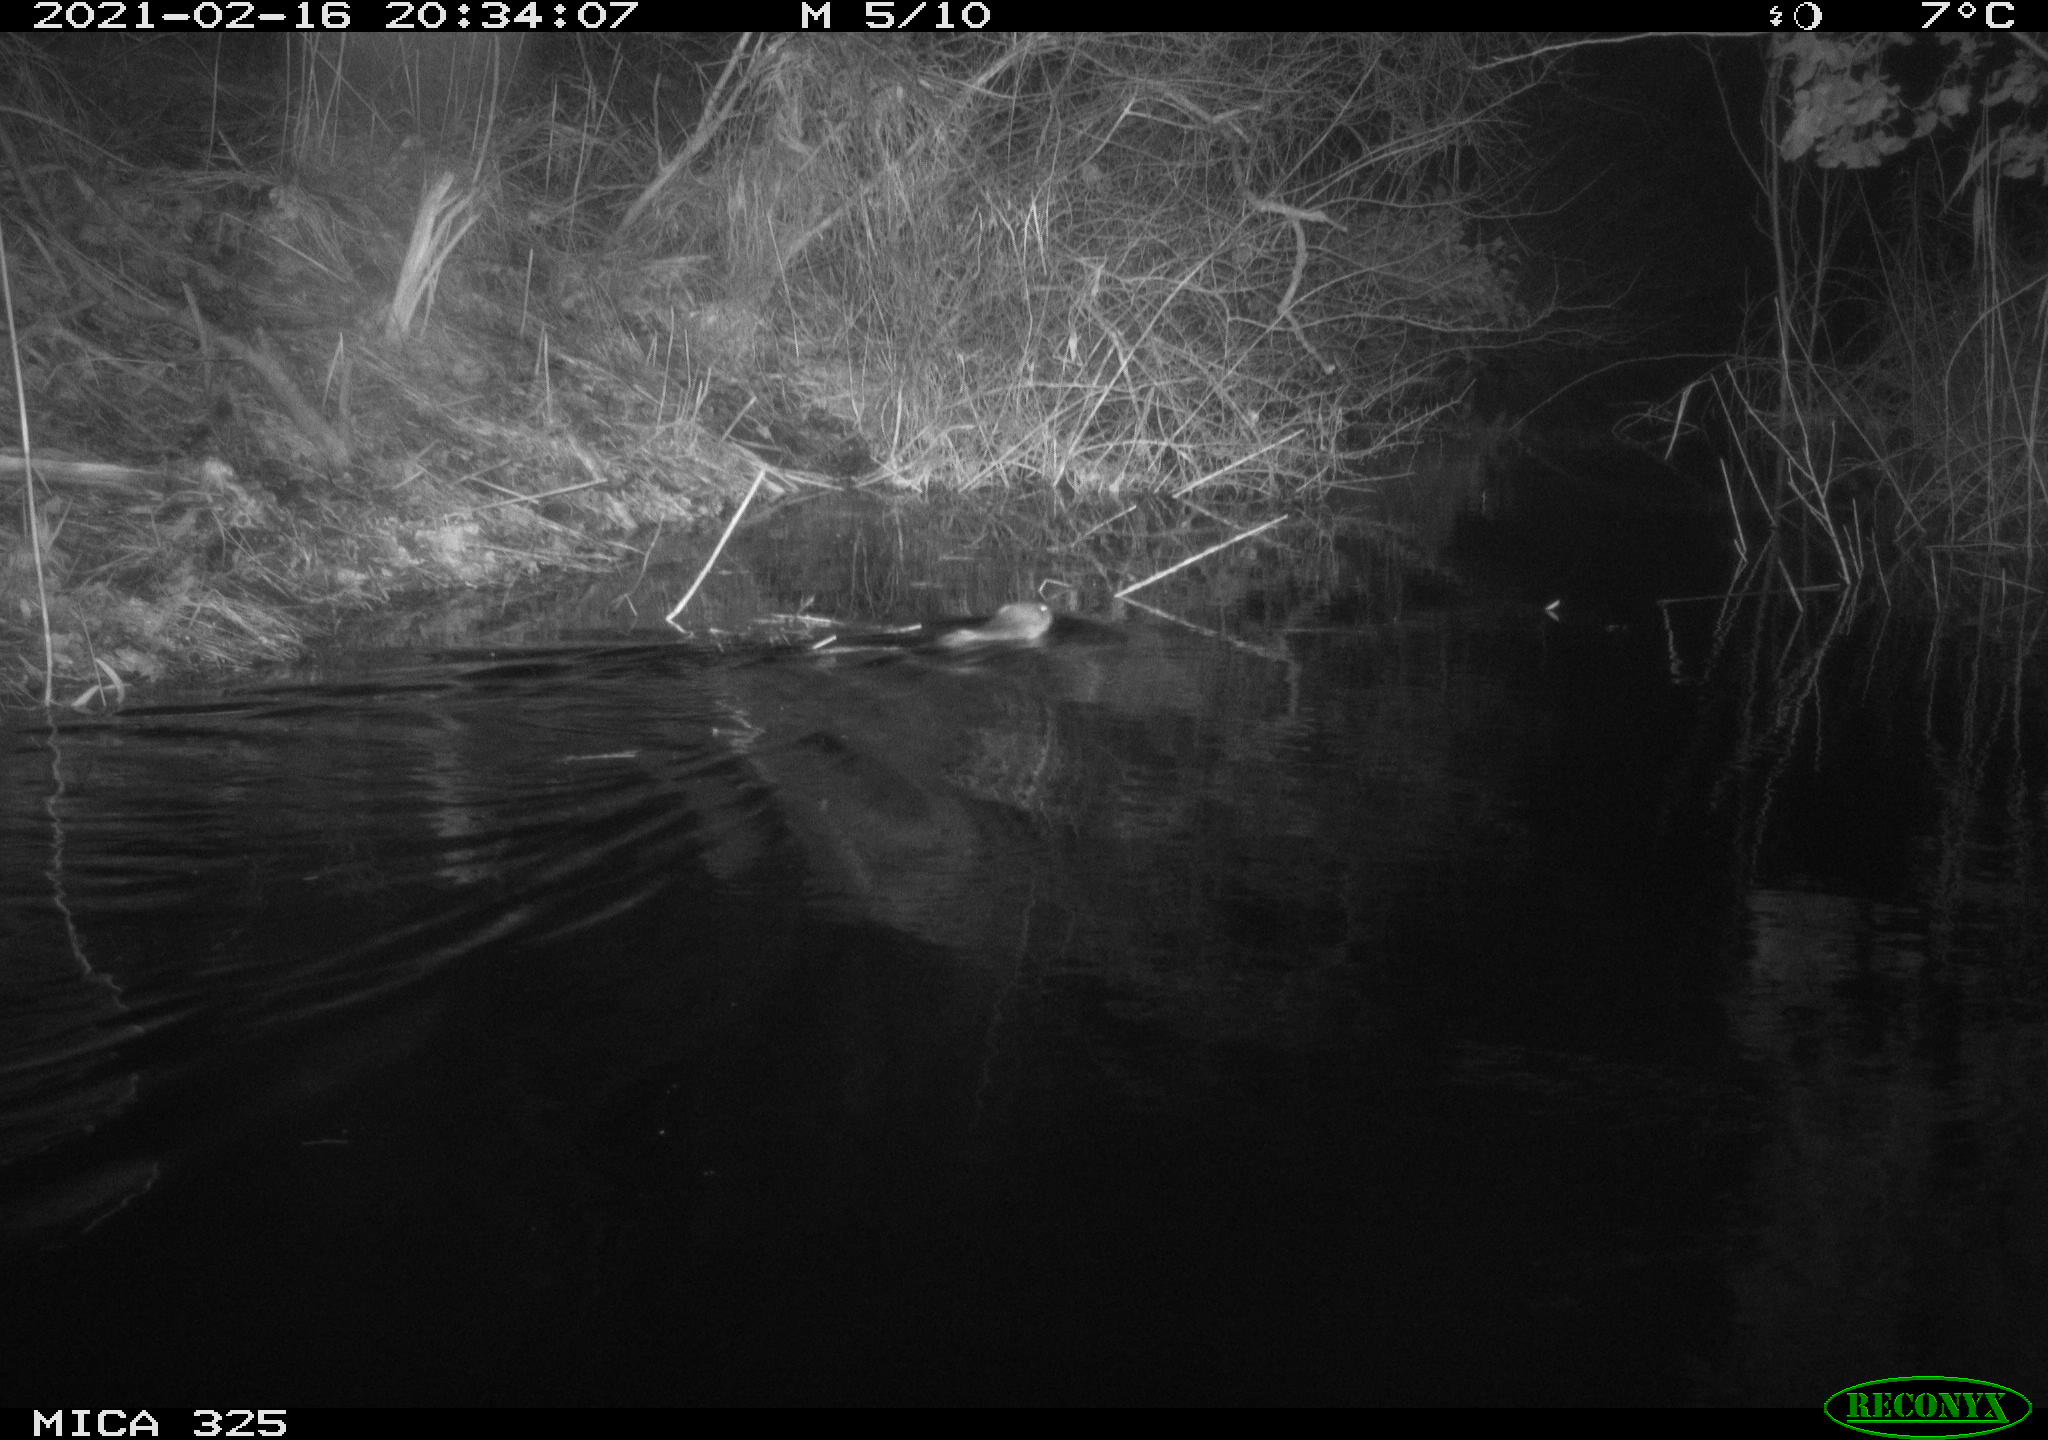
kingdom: Animalia
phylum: Chordata
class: Mammalia
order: Rodentia
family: Cricetidae
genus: Ondatra
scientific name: Ondatra zibethicus
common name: Muskrat
